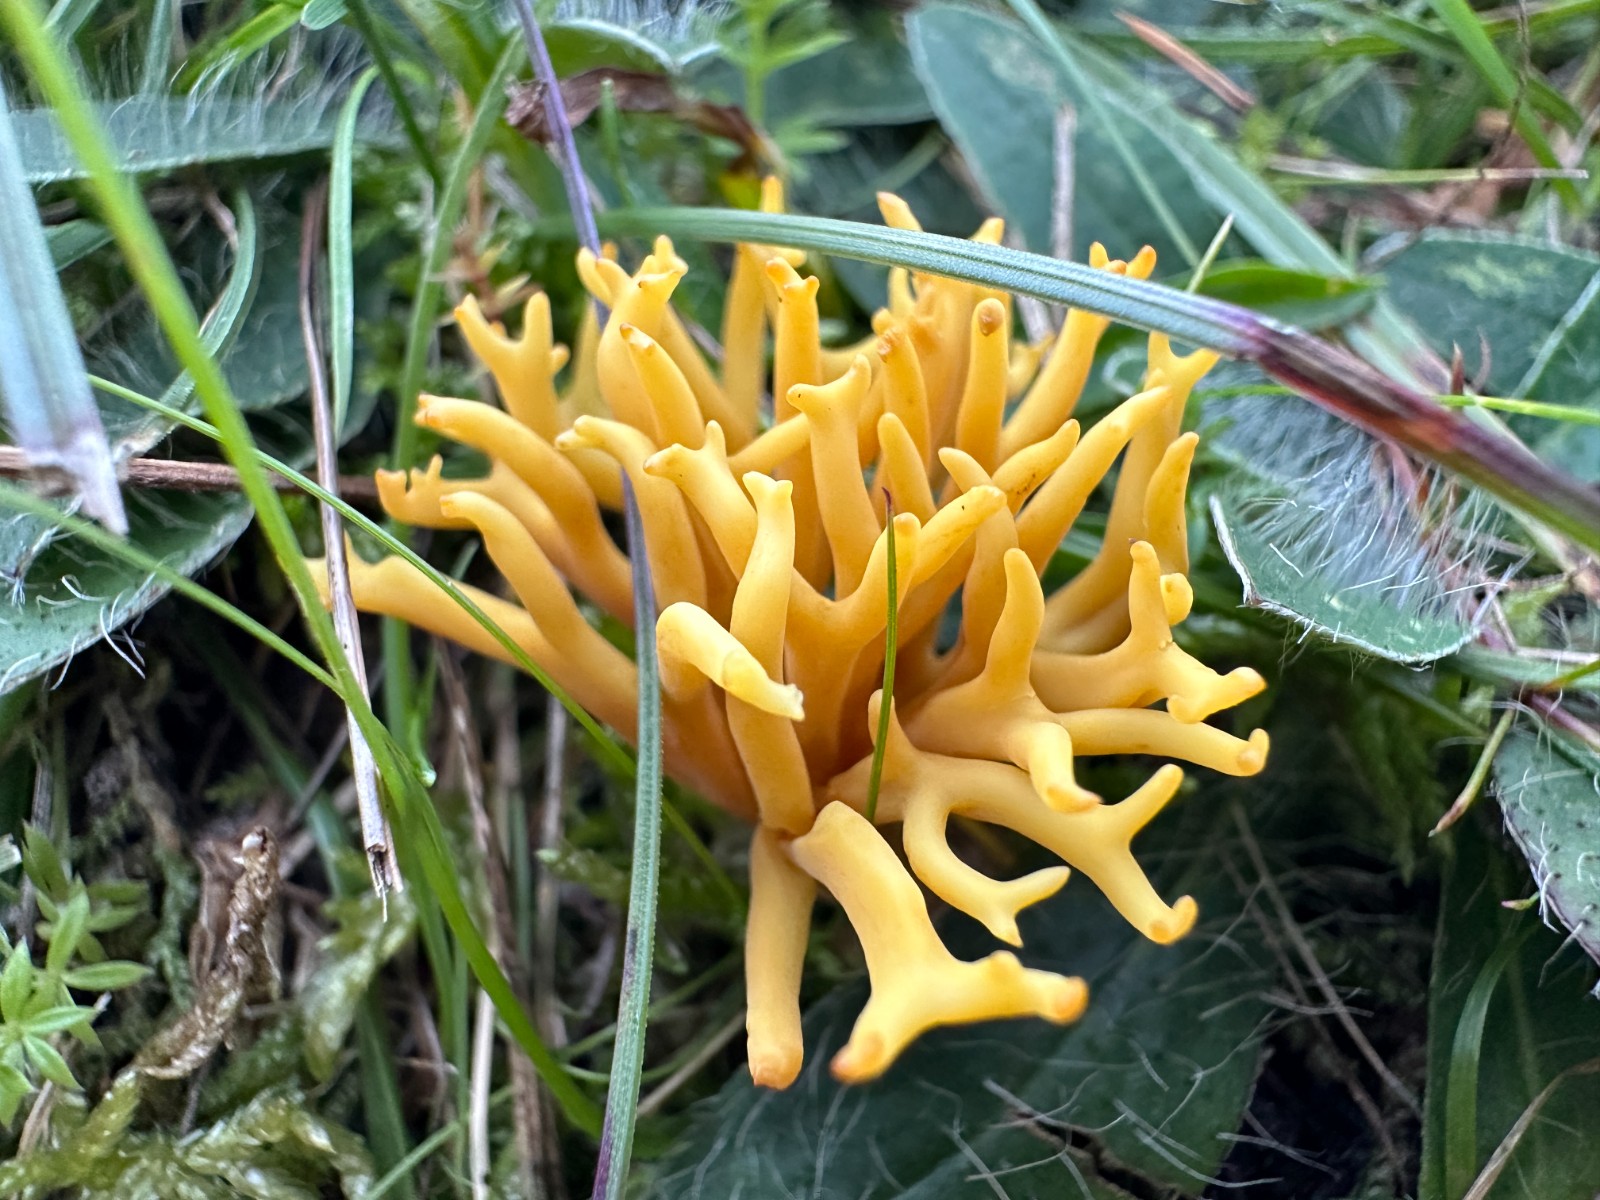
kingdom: Fungi
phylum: Basidiomycota
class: Agaricomycetes
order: Agaricales
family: Clavariaceae
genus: Clavulinopsis
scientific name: Clavulinopsis corniculata
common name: eng-køllesvamp
